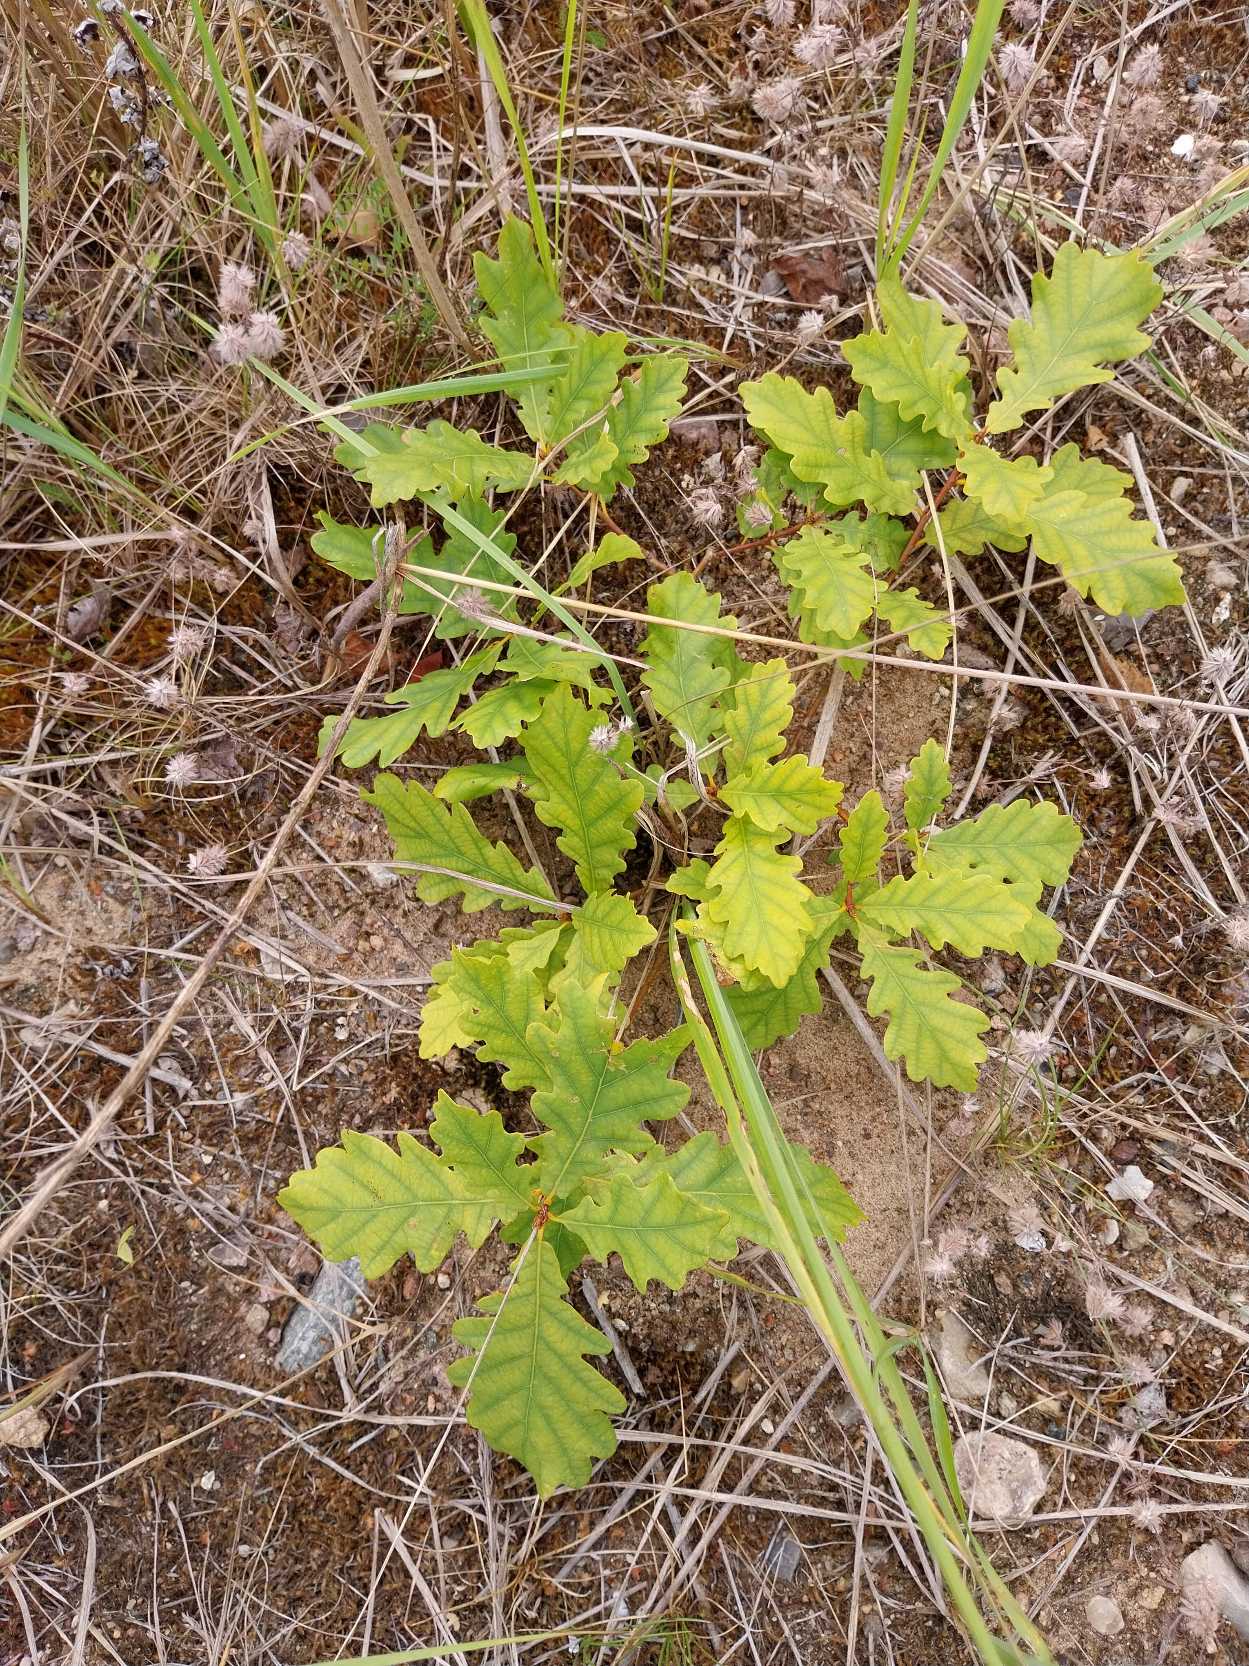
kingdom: Plantae
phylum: Tracheophyta
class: Magnoliopsida
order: Fagales
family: Fagaceae
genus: Quercus
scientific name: Quercus robur
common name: Stilk-eg/almindelig eg
